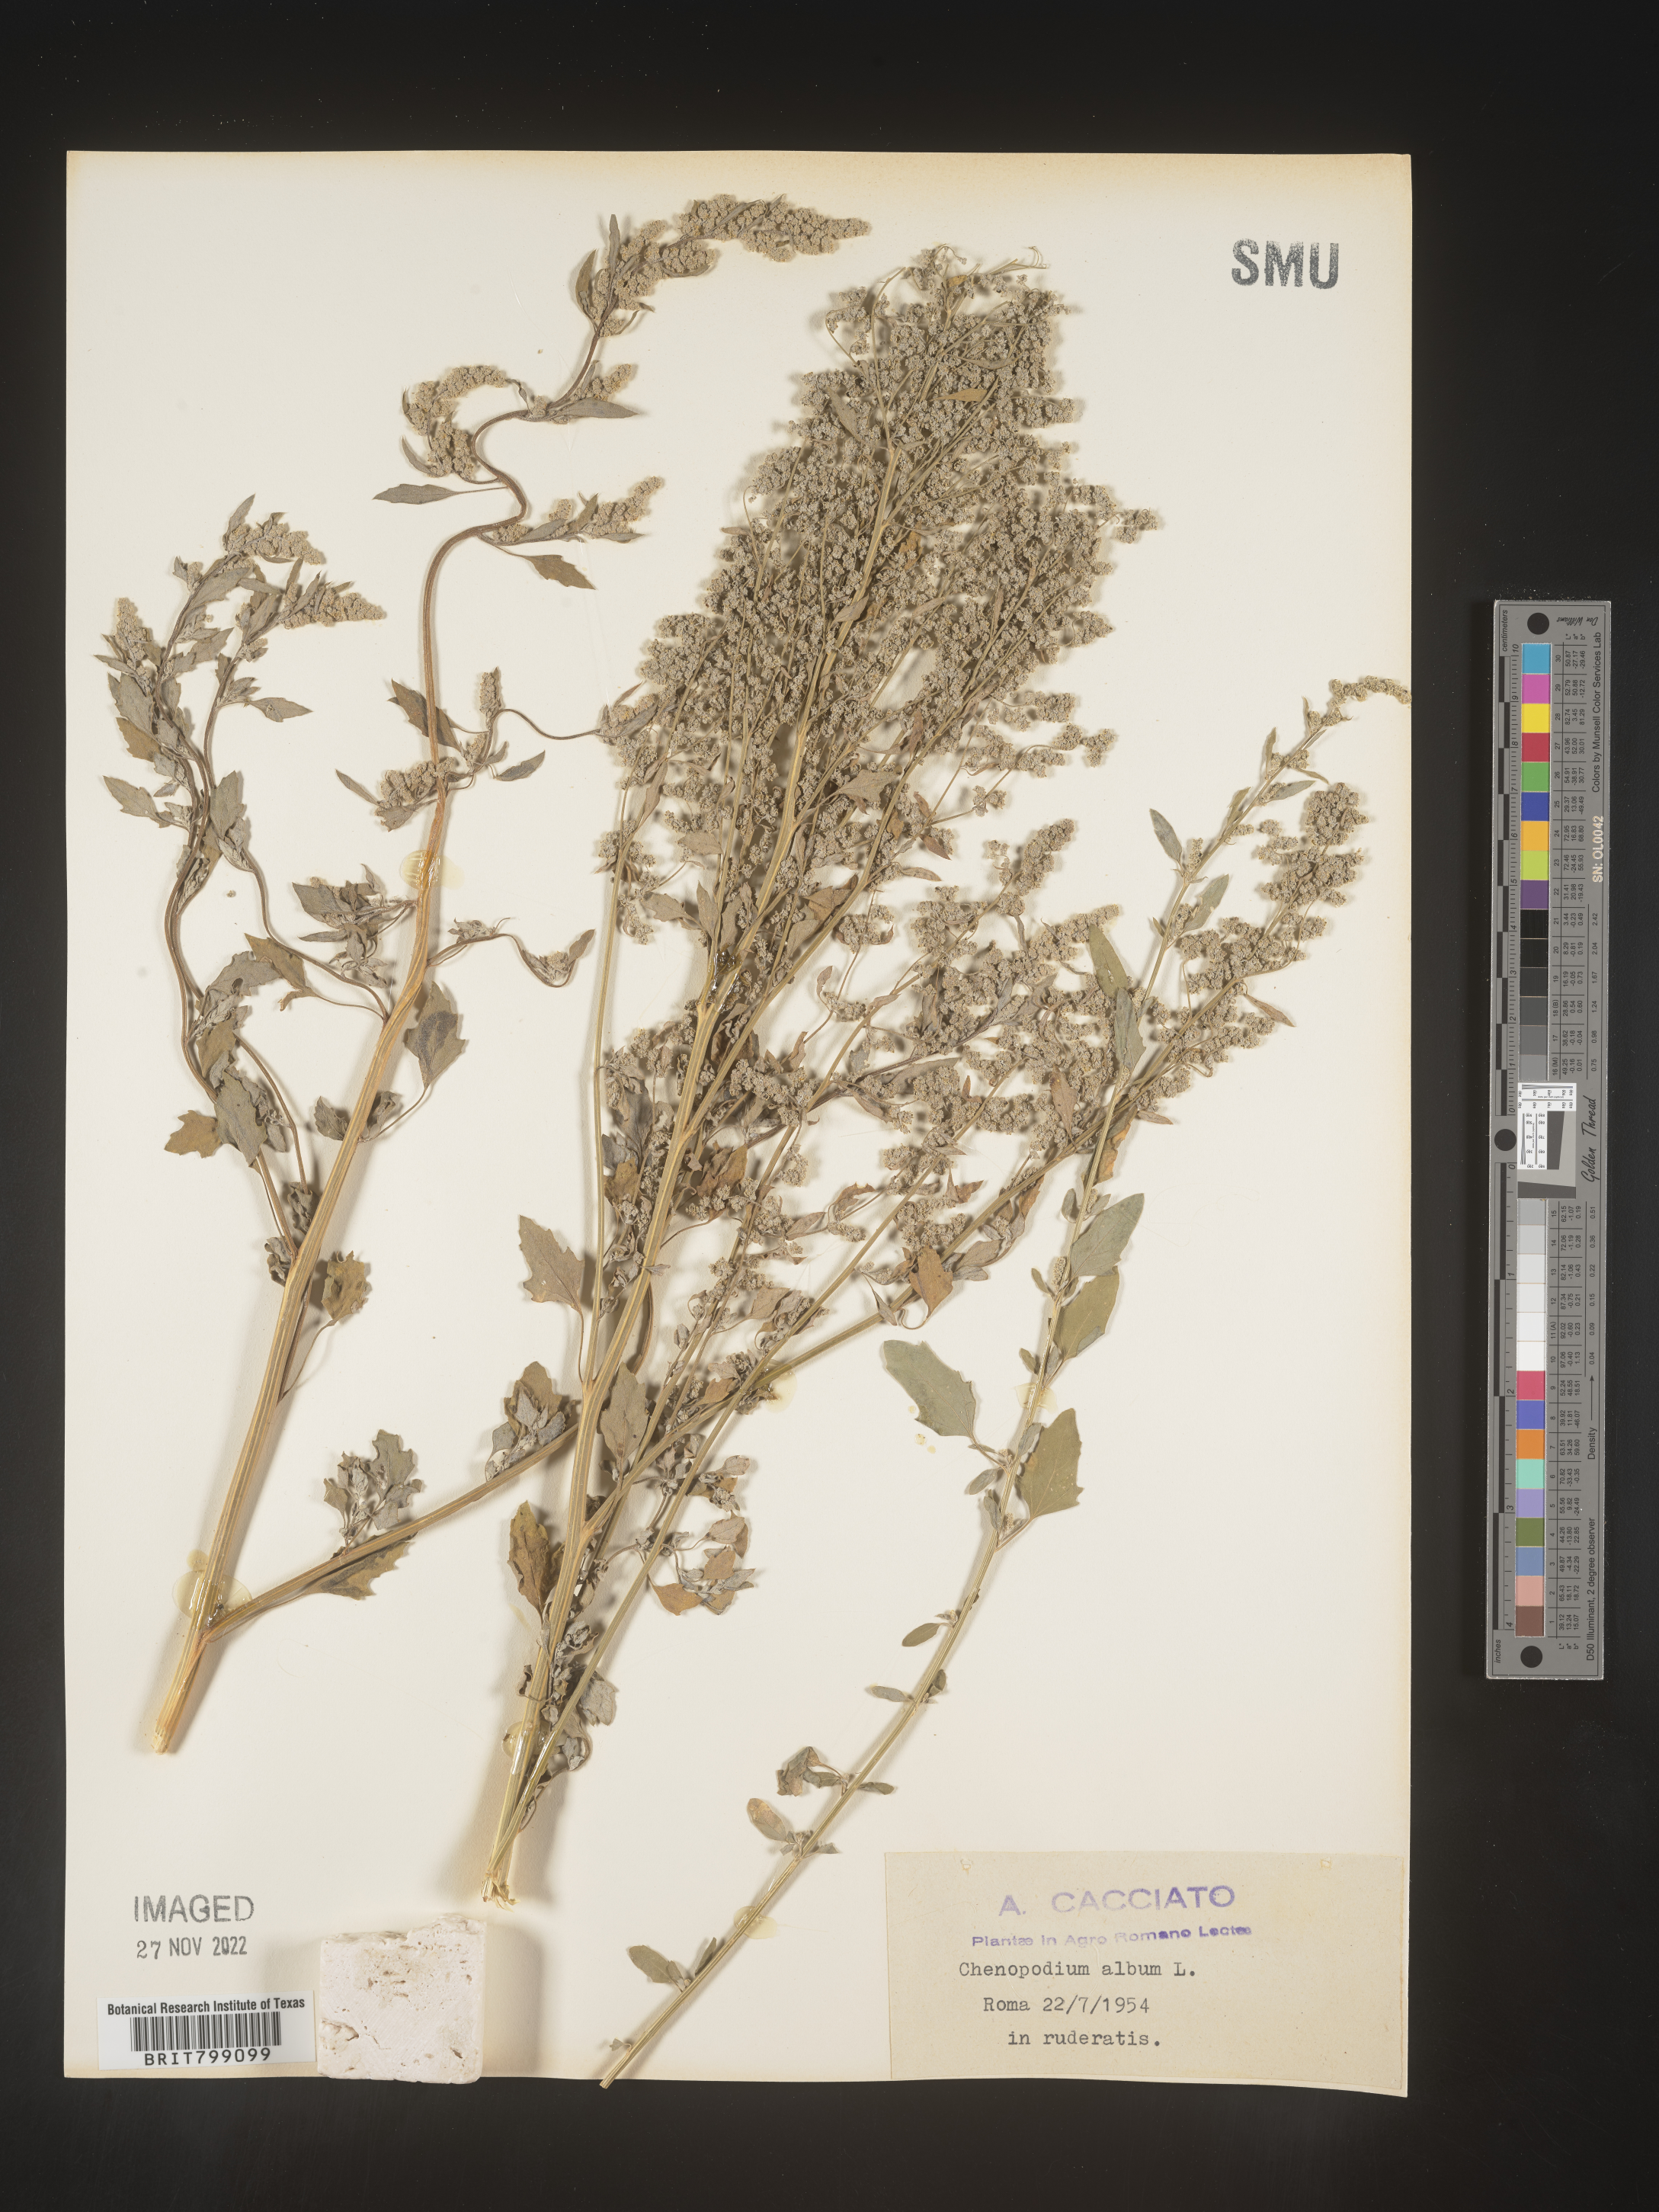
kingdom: Plantae
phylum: Tracheophyta
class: Magnoliopsida
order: Caryophyllales
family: Amaranthaceae
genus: Chenopodium
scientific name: Chenopodium album
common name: Fat-hen
